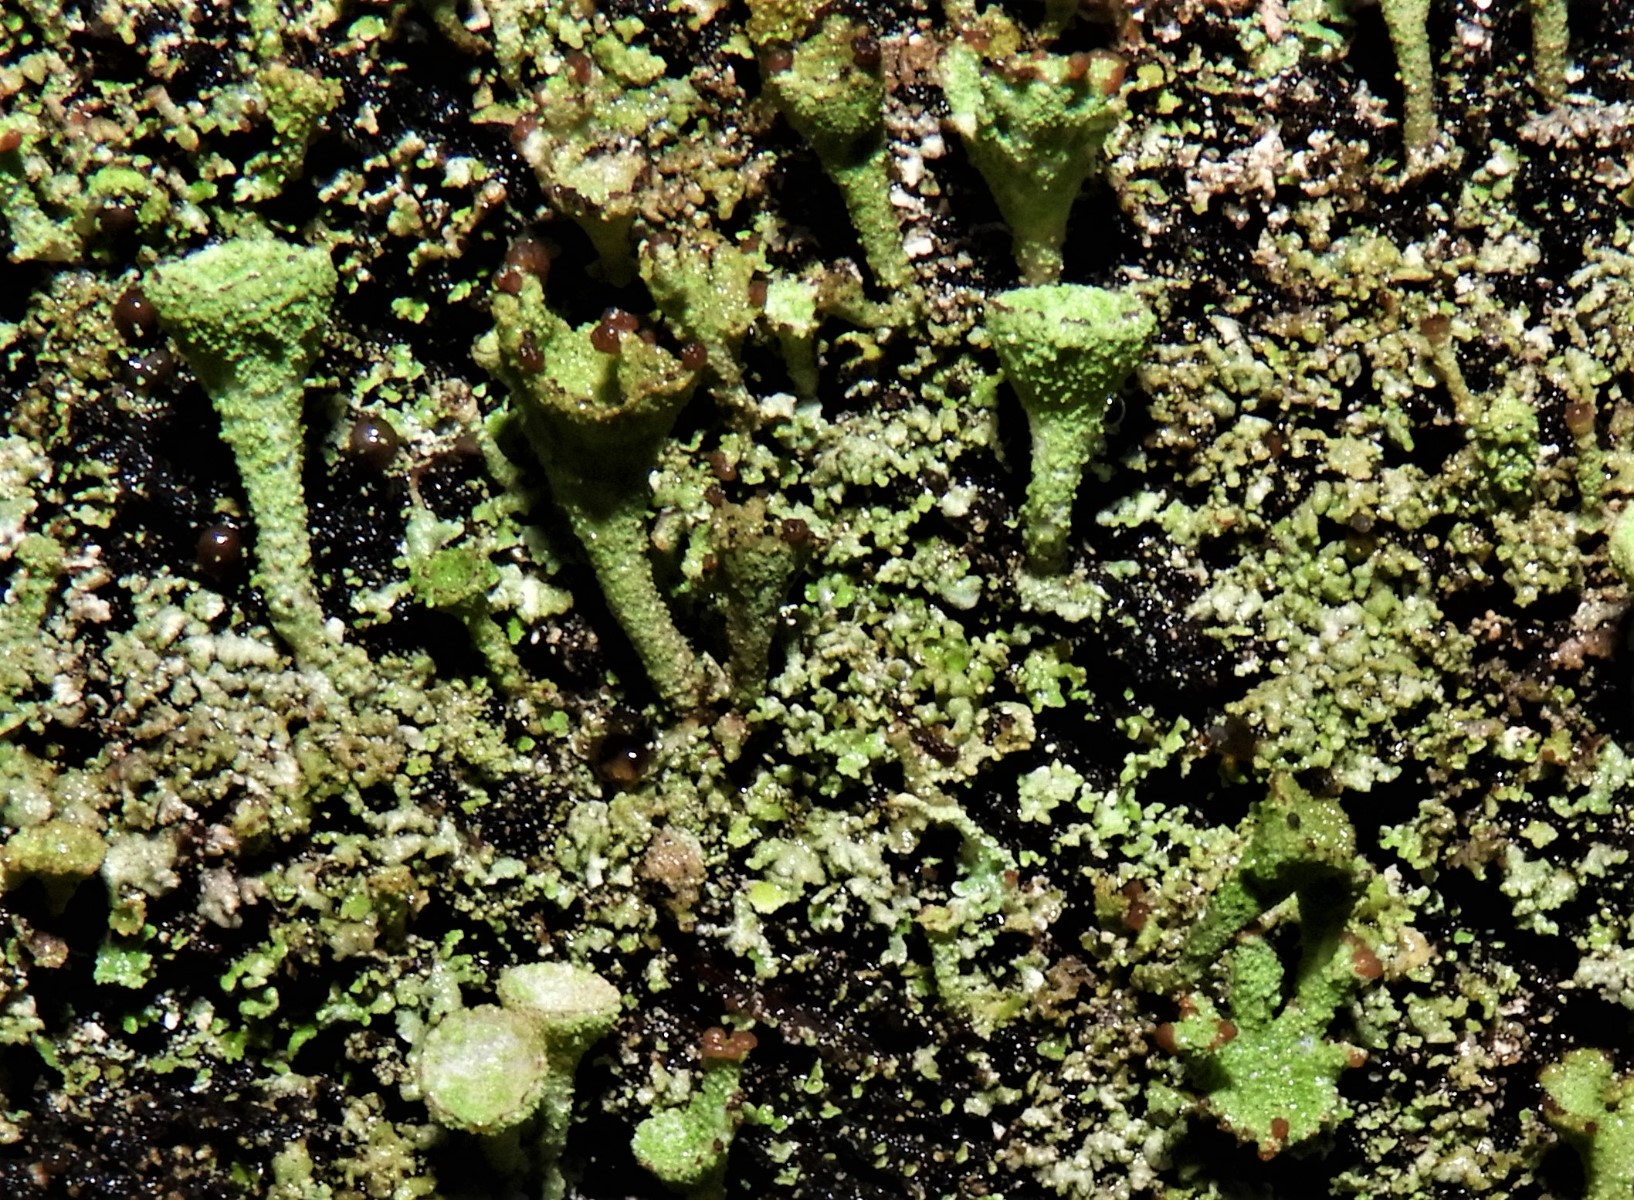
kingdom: Fungi
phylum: Ascomycota
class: Lecanoromycetes
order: Lecanorales
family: Cladoniaceae
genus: Cladonia
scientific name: Cladonia
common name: brungrøn bægerlav
